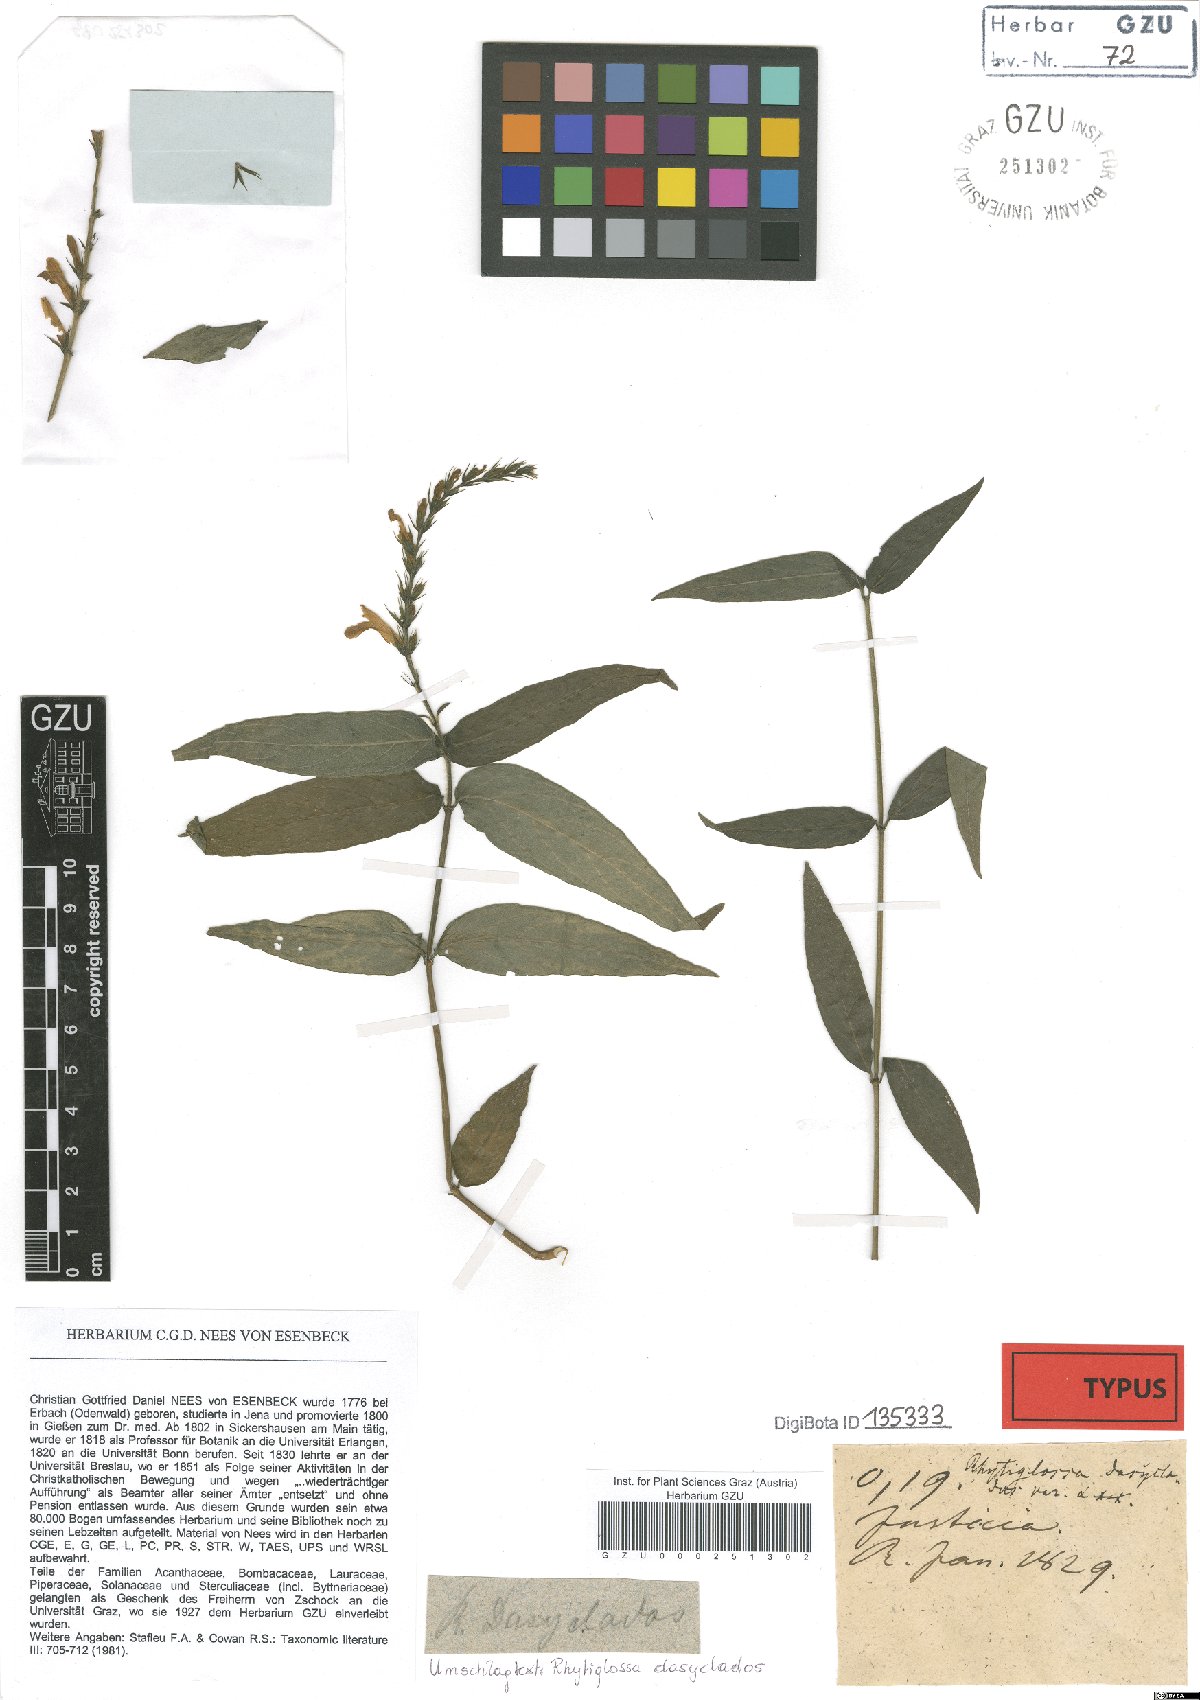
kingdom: Plantae
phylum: Tracheophyta
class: Magnoliopsida
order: Lamiales
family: Acanthaceae
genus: Dianthera
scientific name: Dianthera dasyclados
